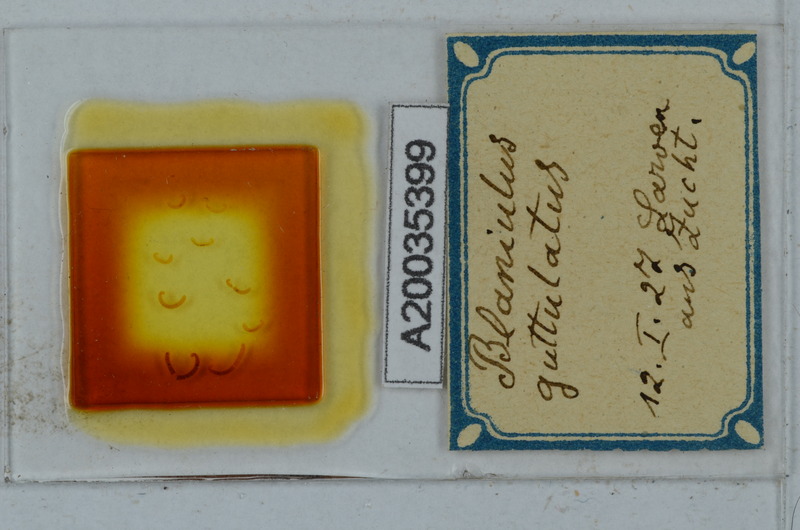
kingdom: Animalia
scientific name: Animalia
